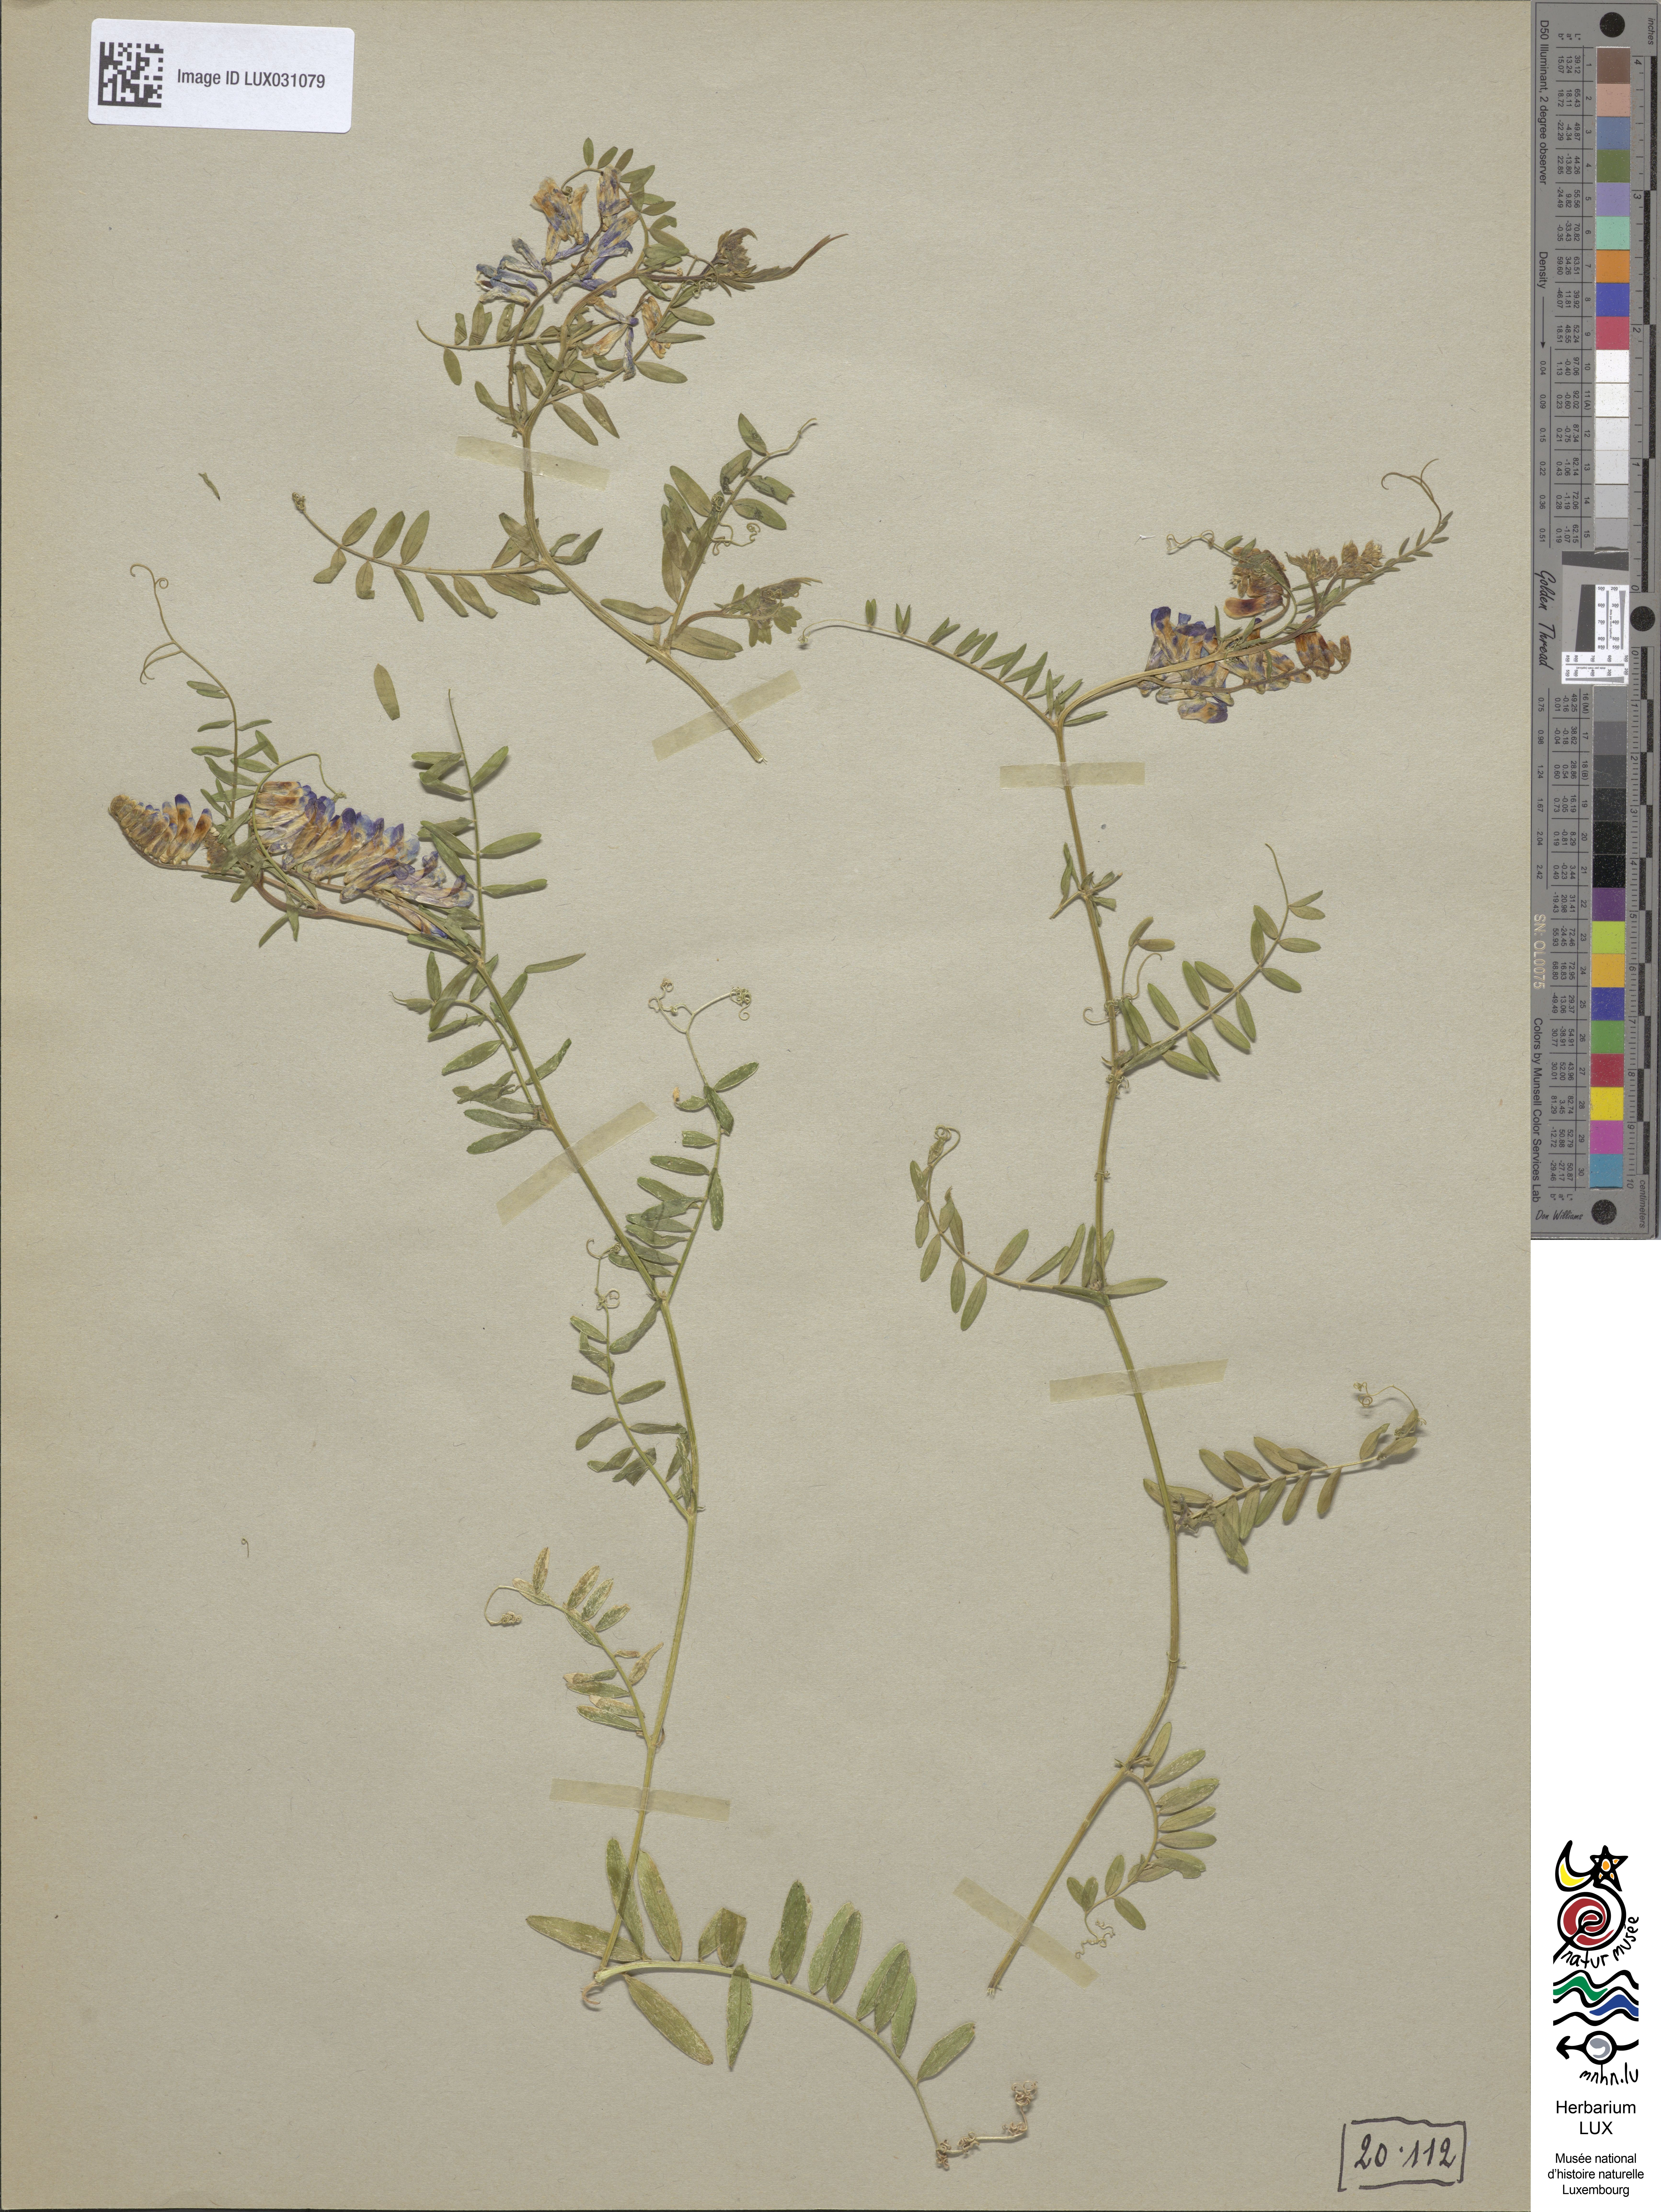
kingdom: Plantae
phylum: Tracheophyta
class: Magnoliopsida
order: Fabales
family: Fabaceae
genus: Vicia
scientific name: Vicia villosa
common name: Fodder vetch
